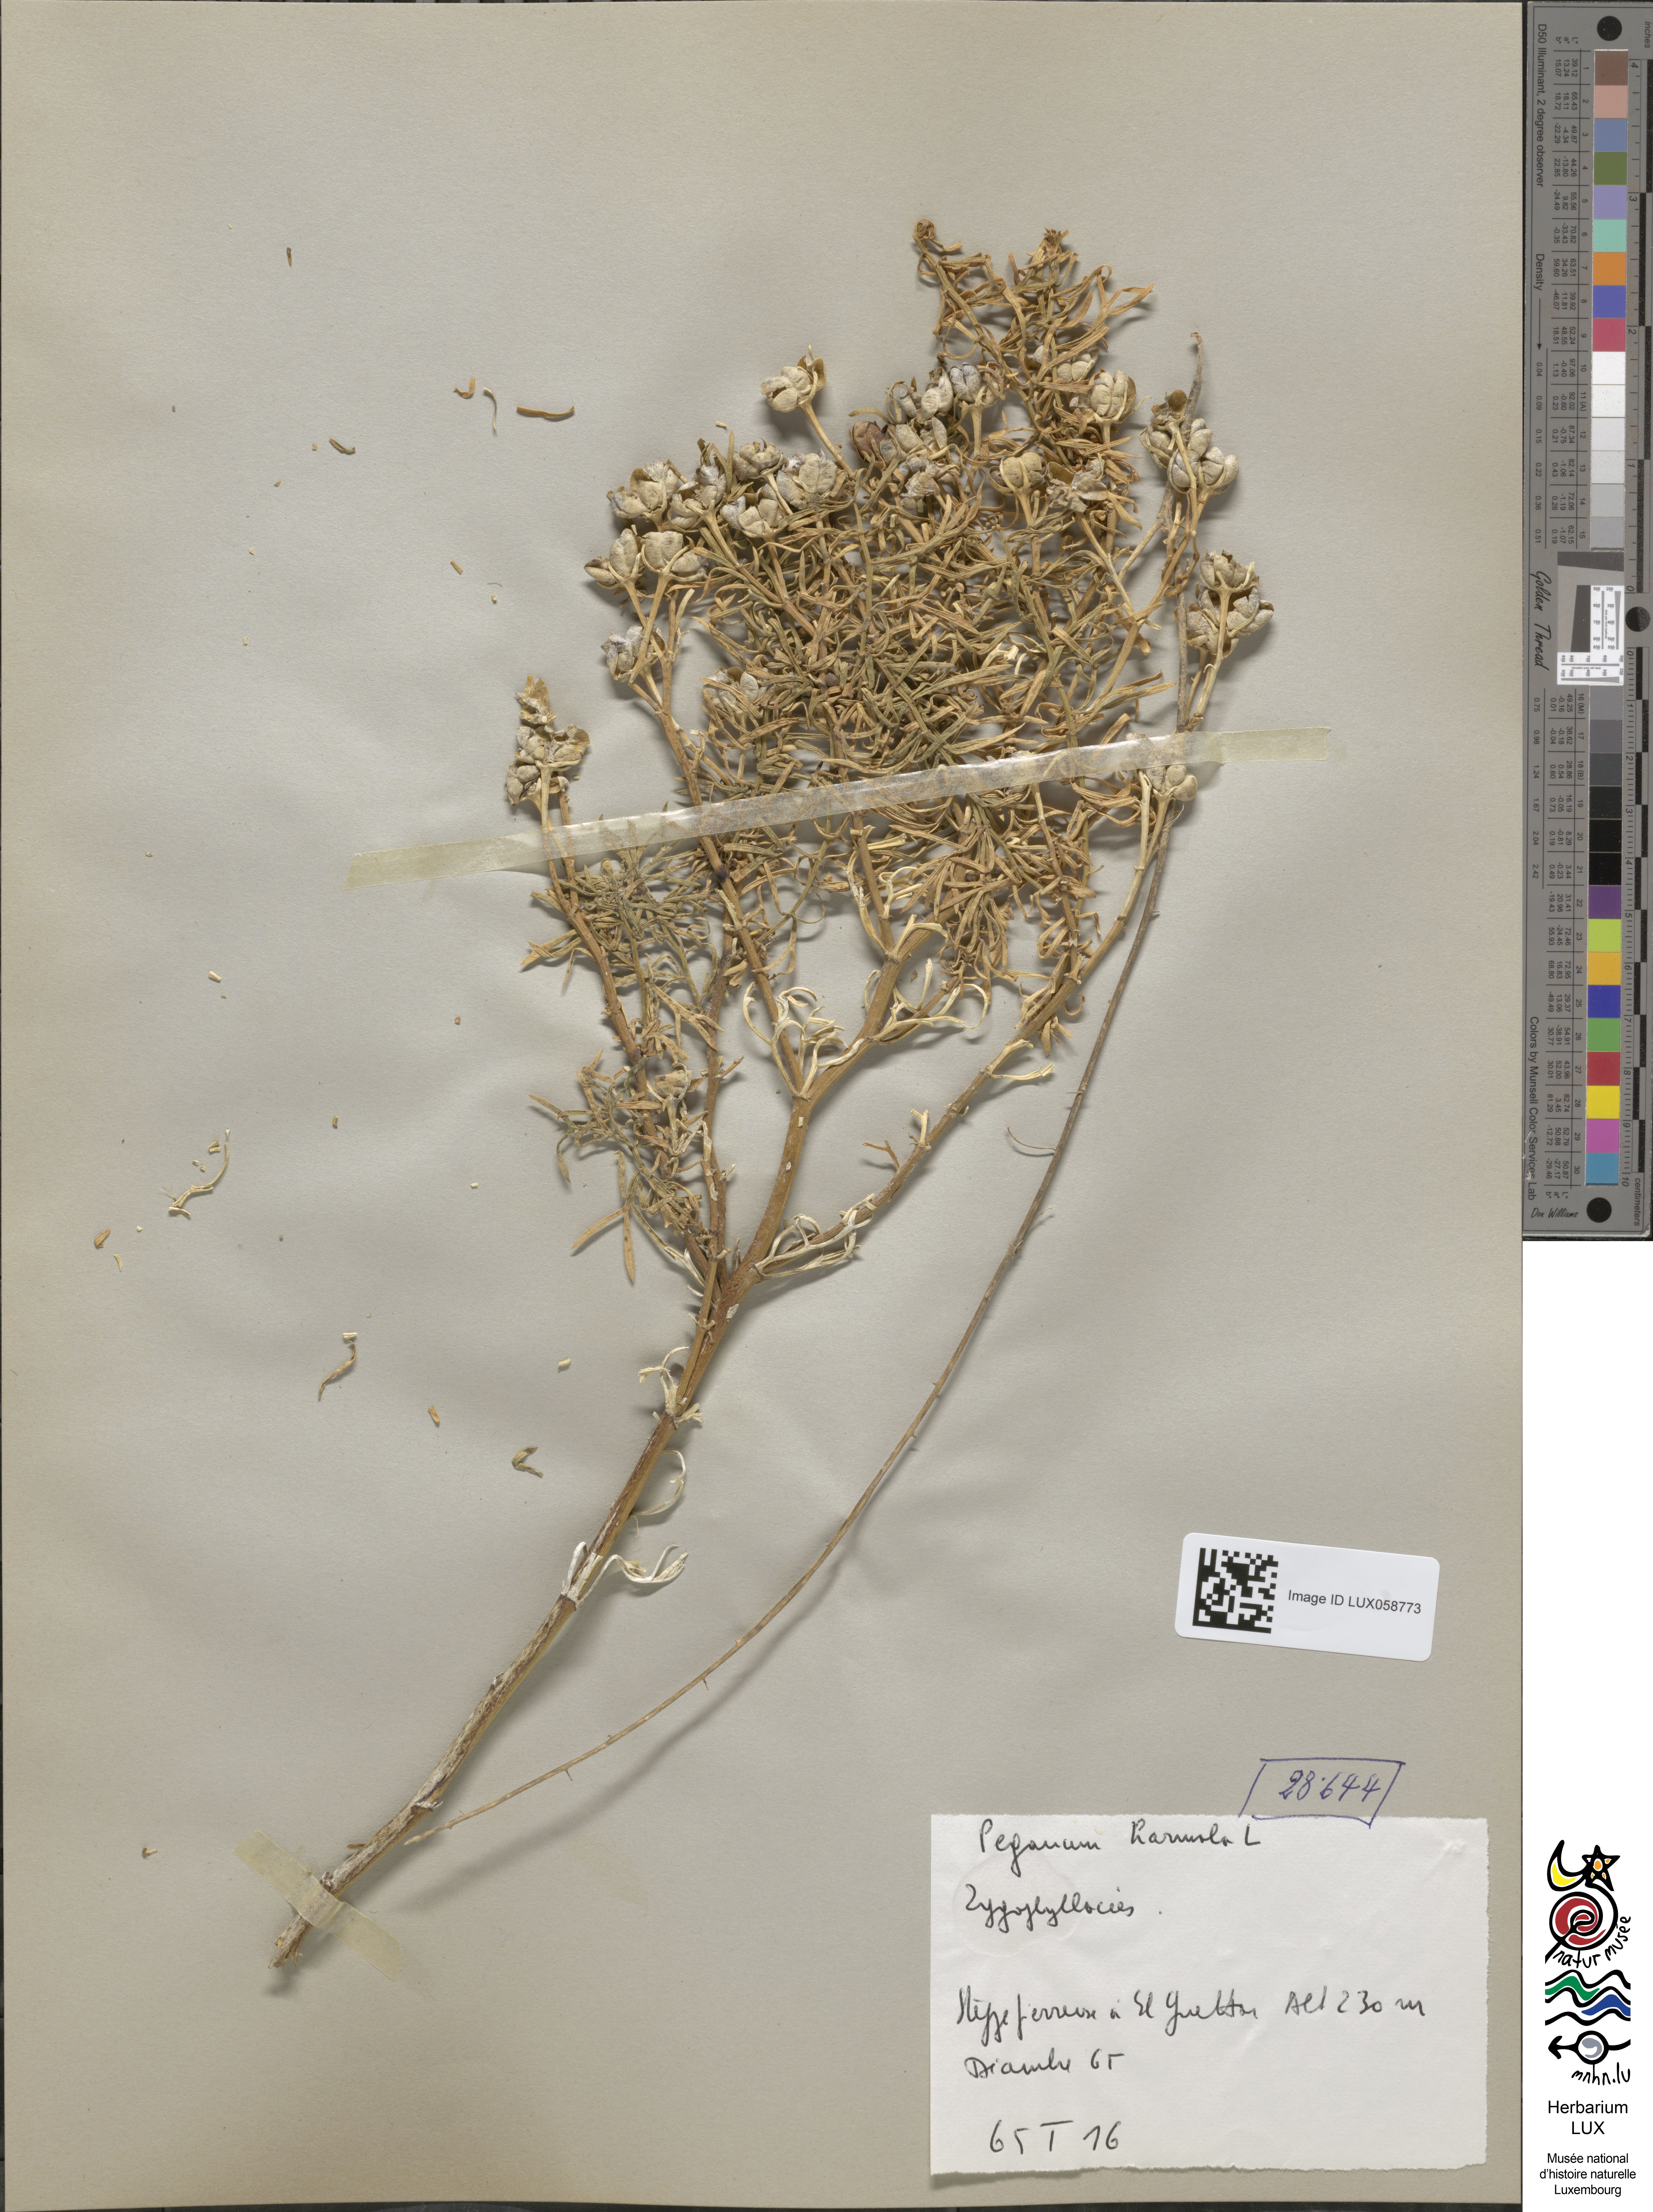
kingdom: Plantae
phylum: Tracheophyta
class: Magnoliopsida
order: Sapindales
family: Tetradiclidaceae
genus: Peganum
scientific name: Peganum harmala
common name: Harmal peganum
